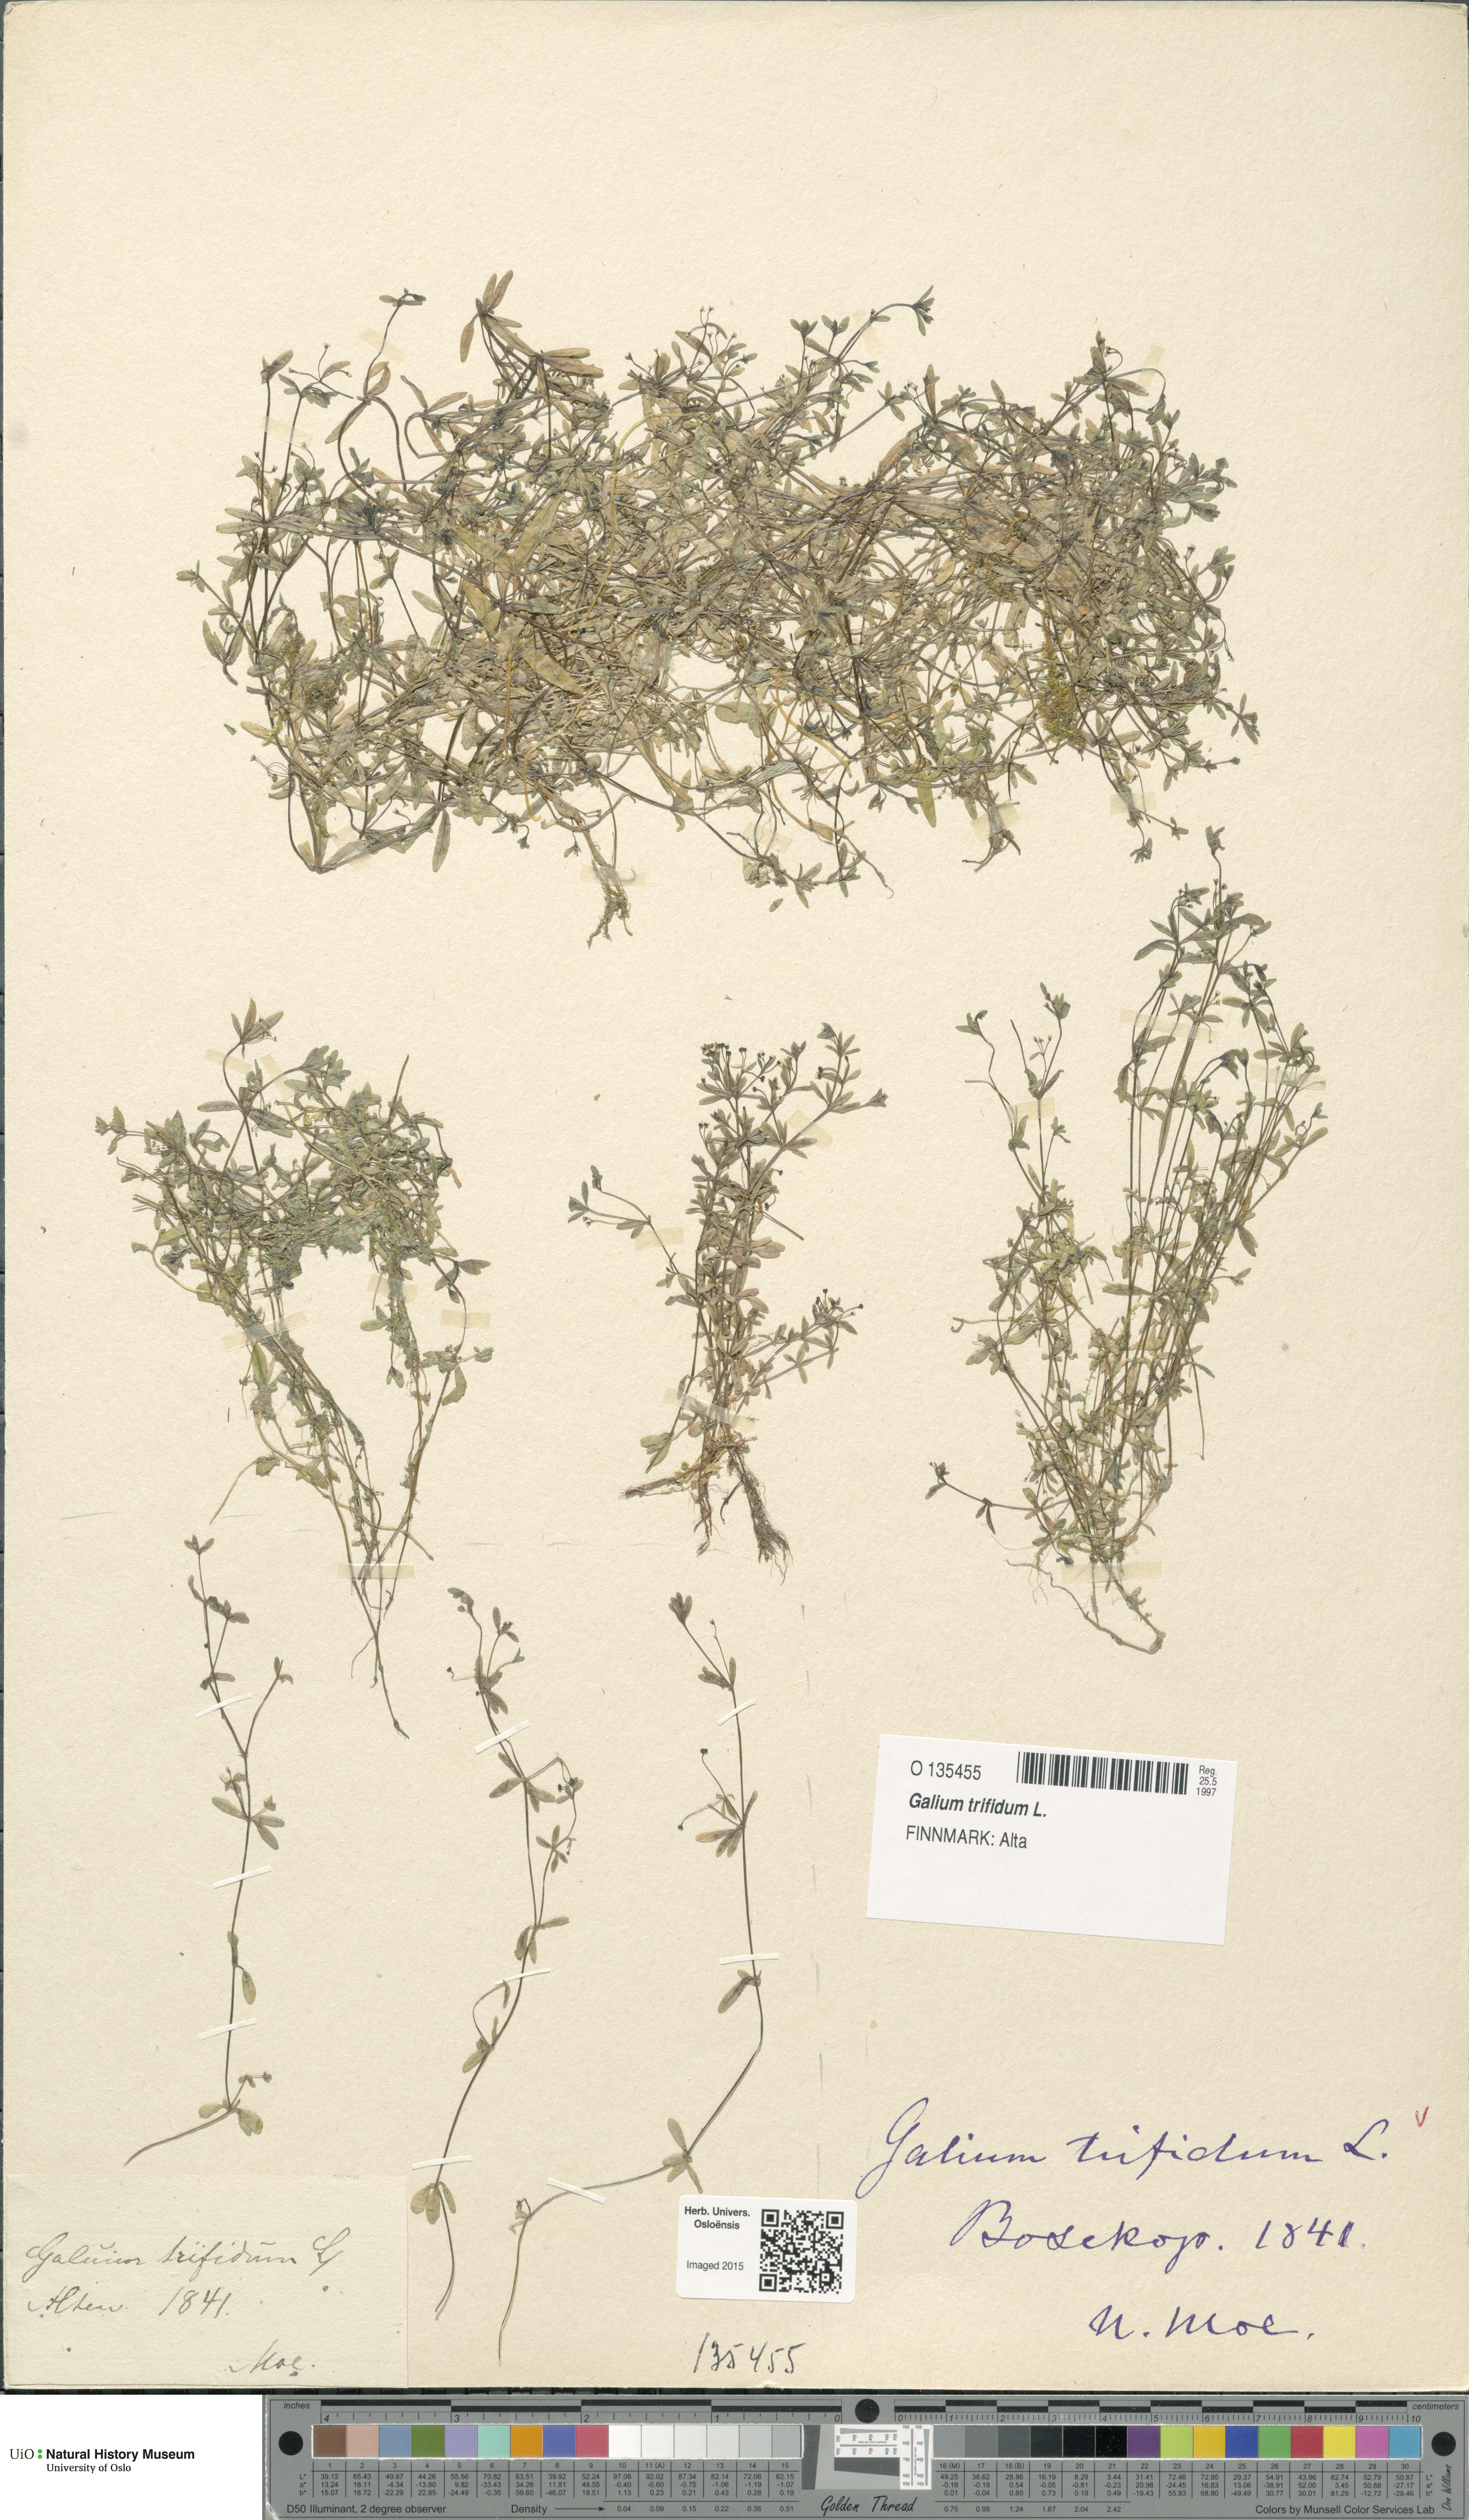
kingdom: Plantae
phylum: Tracheophyta
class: Magnoliopsida
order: Gentianales
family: Rubiaceae
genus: Galium
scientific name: Galium trifidum
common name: Small bedstraw
